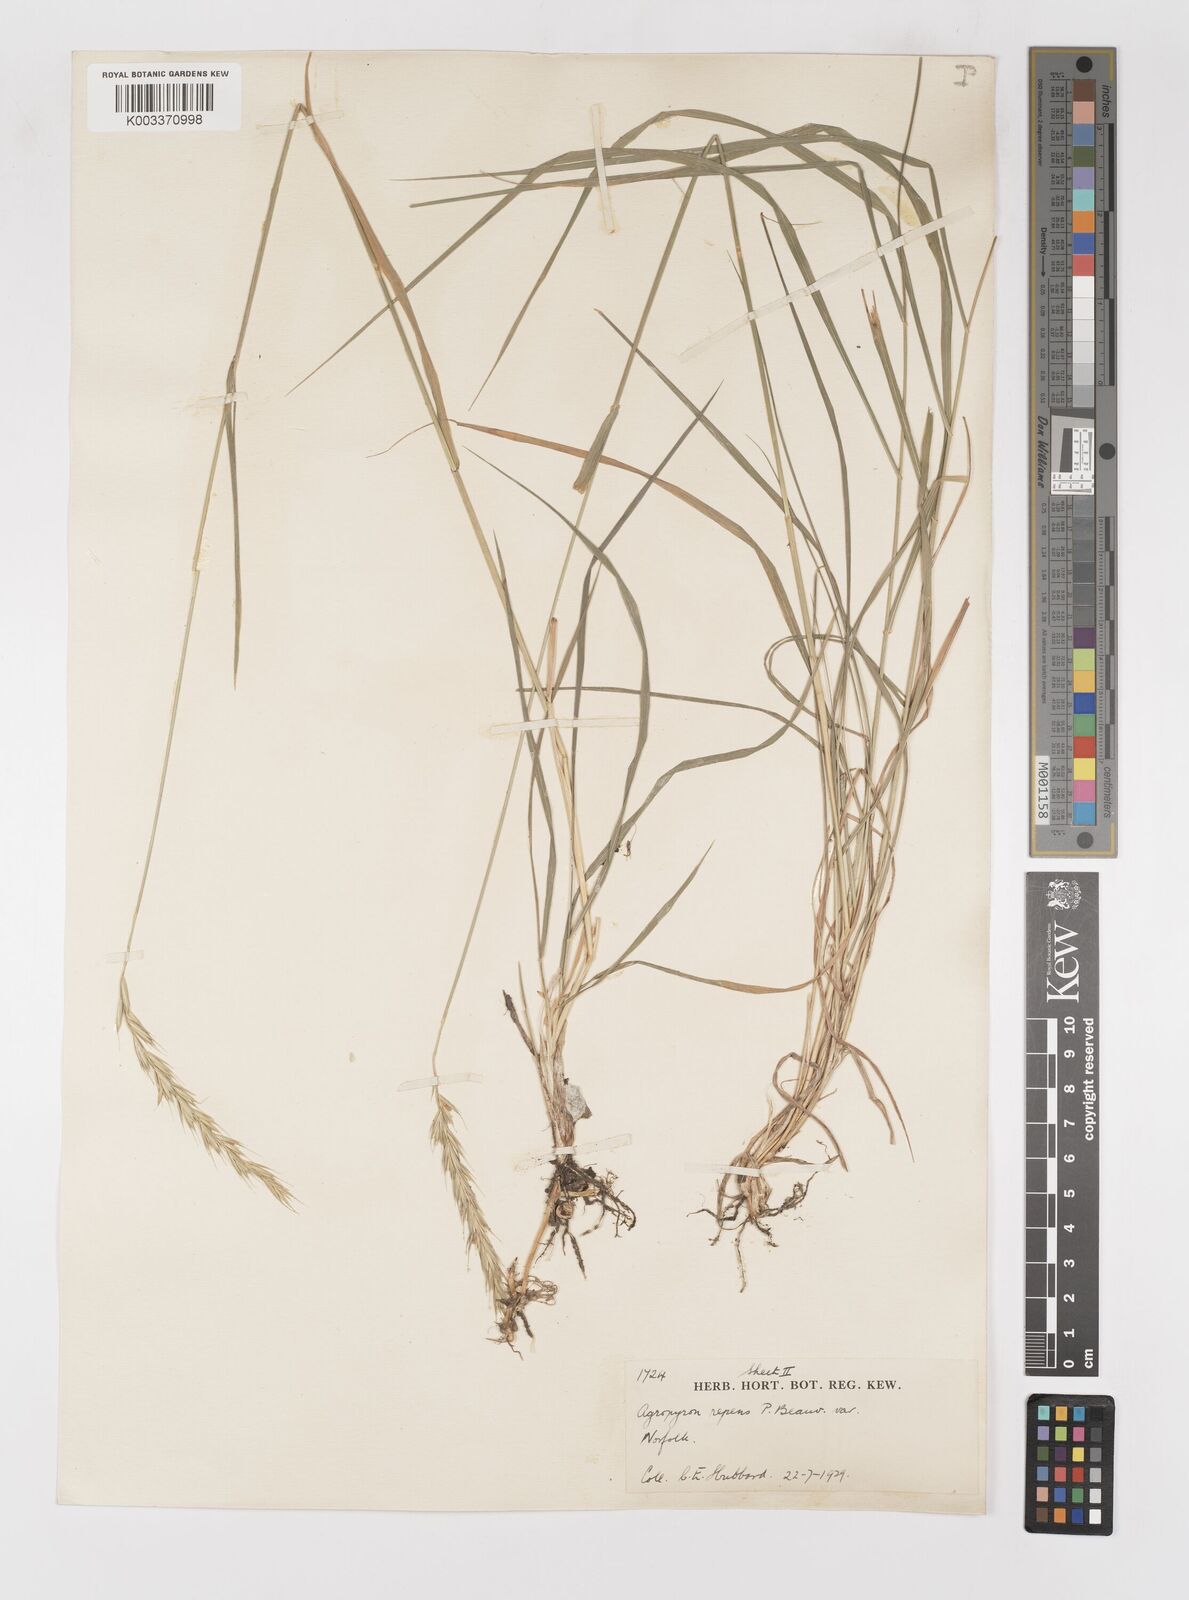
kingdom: Plantae
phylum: Tracheophyta
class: Liliopsida
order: Poales
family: Poaceae
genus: Elymus
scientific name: Elymus repens
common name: Quackgrass
